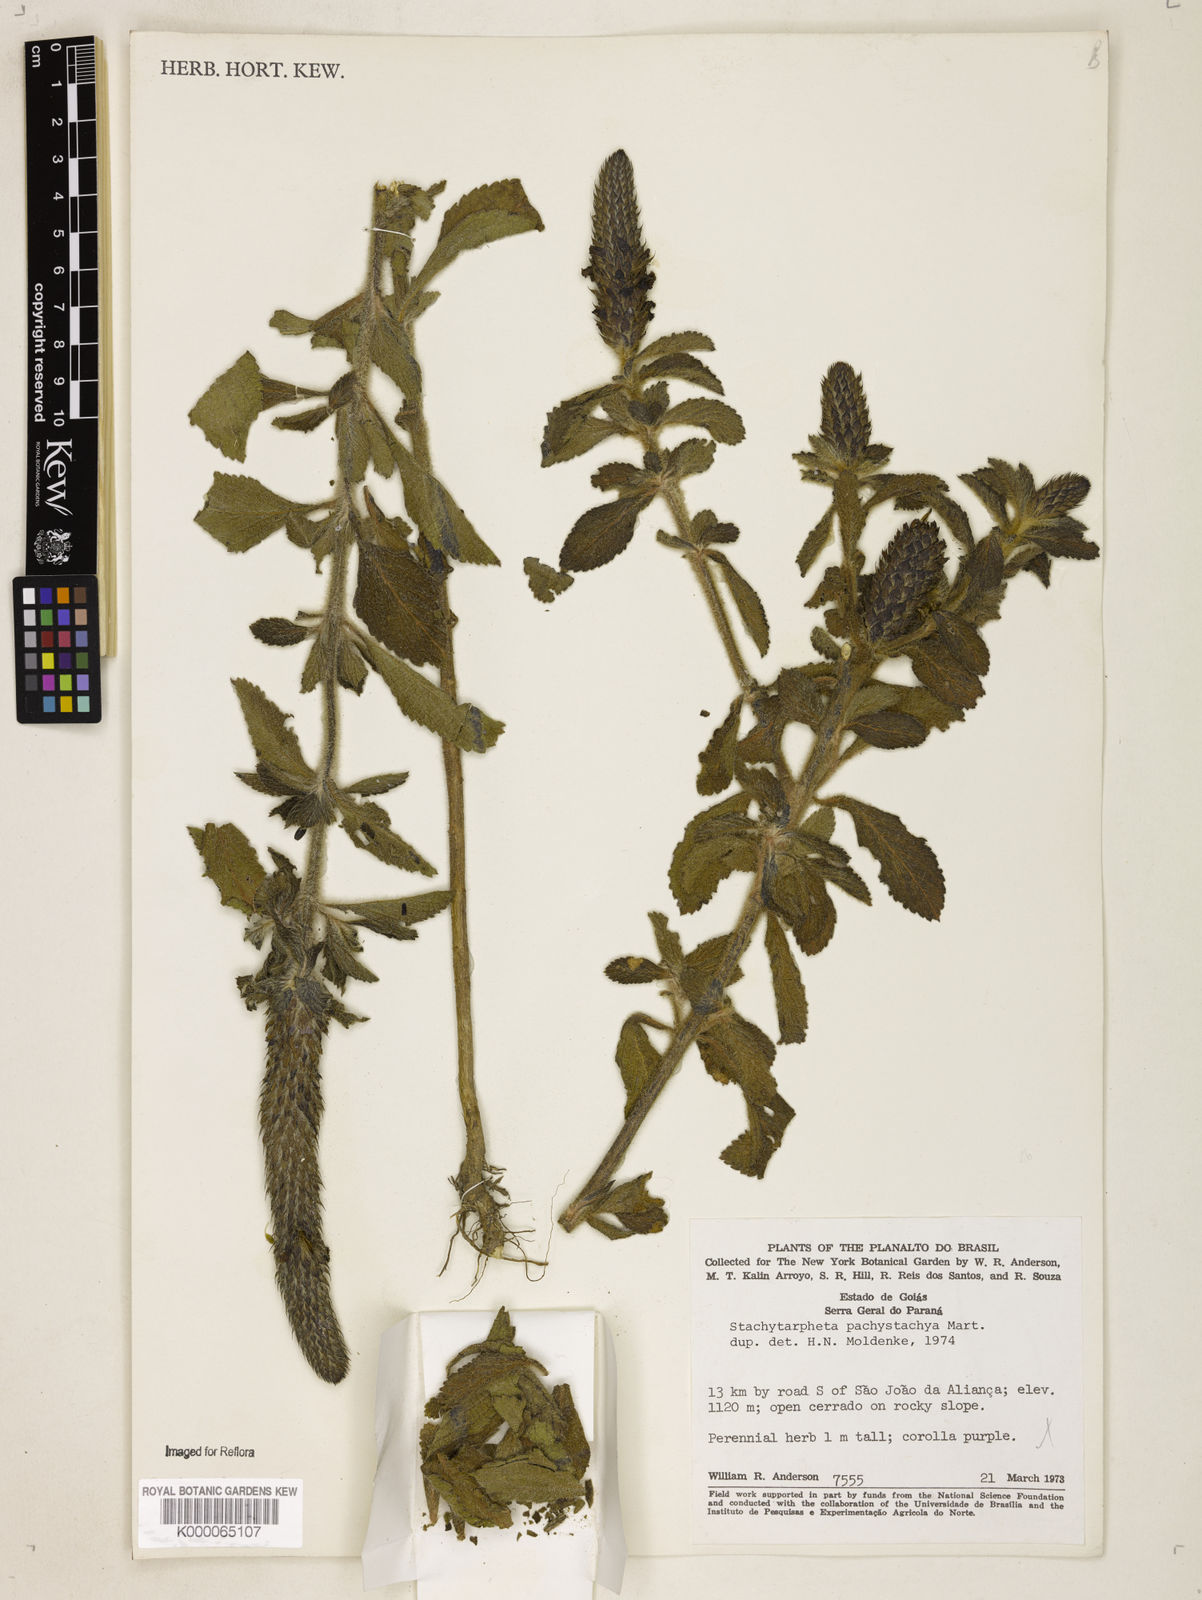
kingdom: Plantae
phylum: Tracheophyta
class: Magnoliopsida
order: Lamiales
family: Verbenaceae
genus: Stachytarpheta
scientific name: Stachytarpheta
